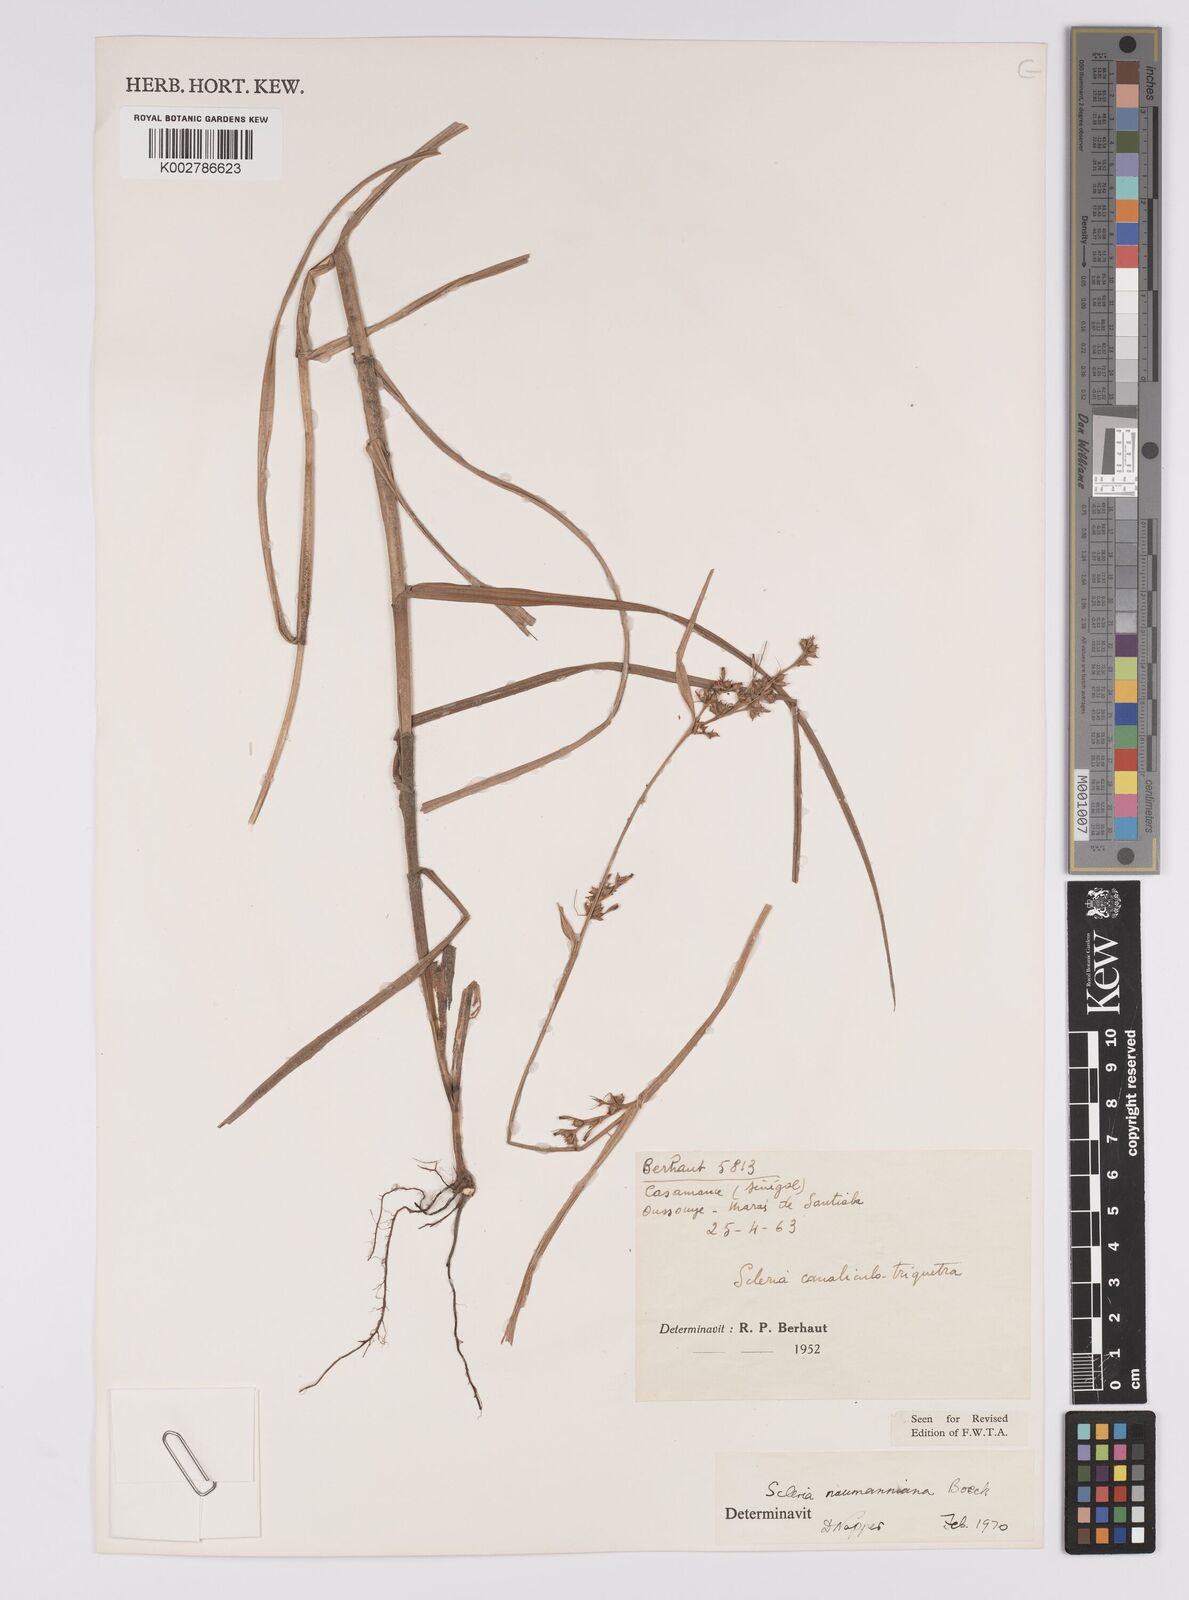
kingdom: Plantae
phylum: Tracheophyta
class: Liliopsida
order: Poales
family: Cyperaceae
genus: Scleria
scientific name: Scleria naumanniana
